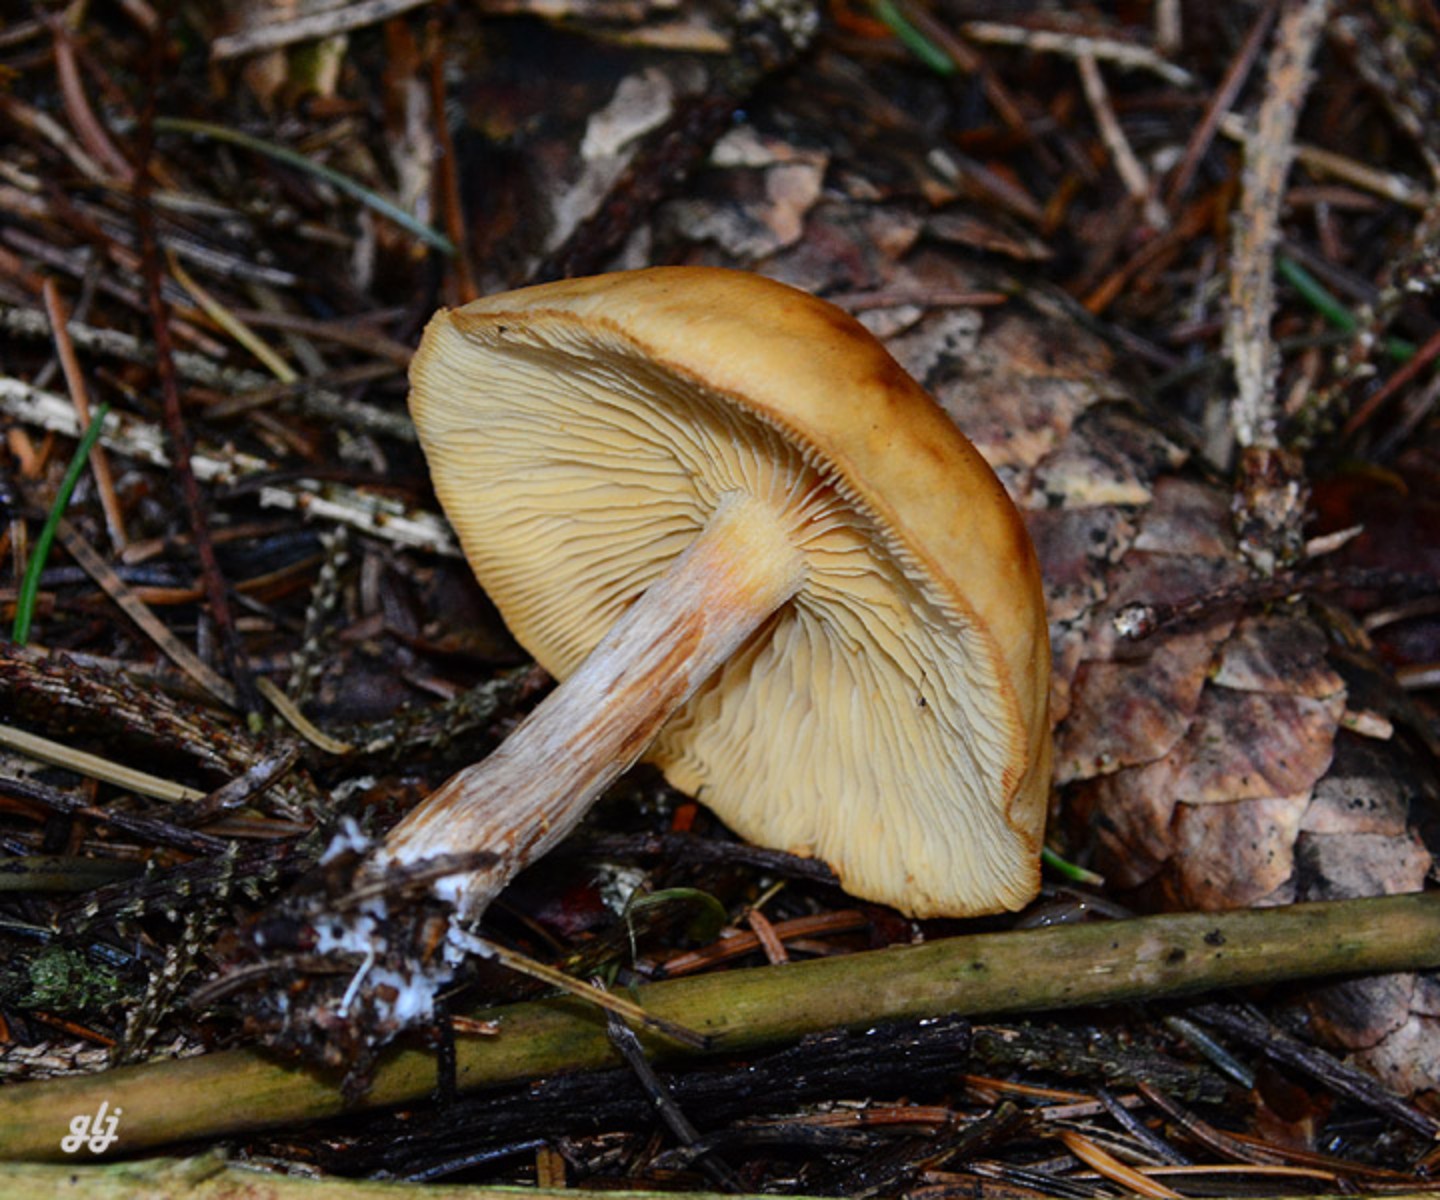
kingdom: Fungi
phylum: Basidiomycota
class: Agaricomycetes
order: Agaricales
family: Hymenogastraceae
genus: Gymnopilus
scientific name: Gymnopilus penetrans
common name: plettet flammehat
